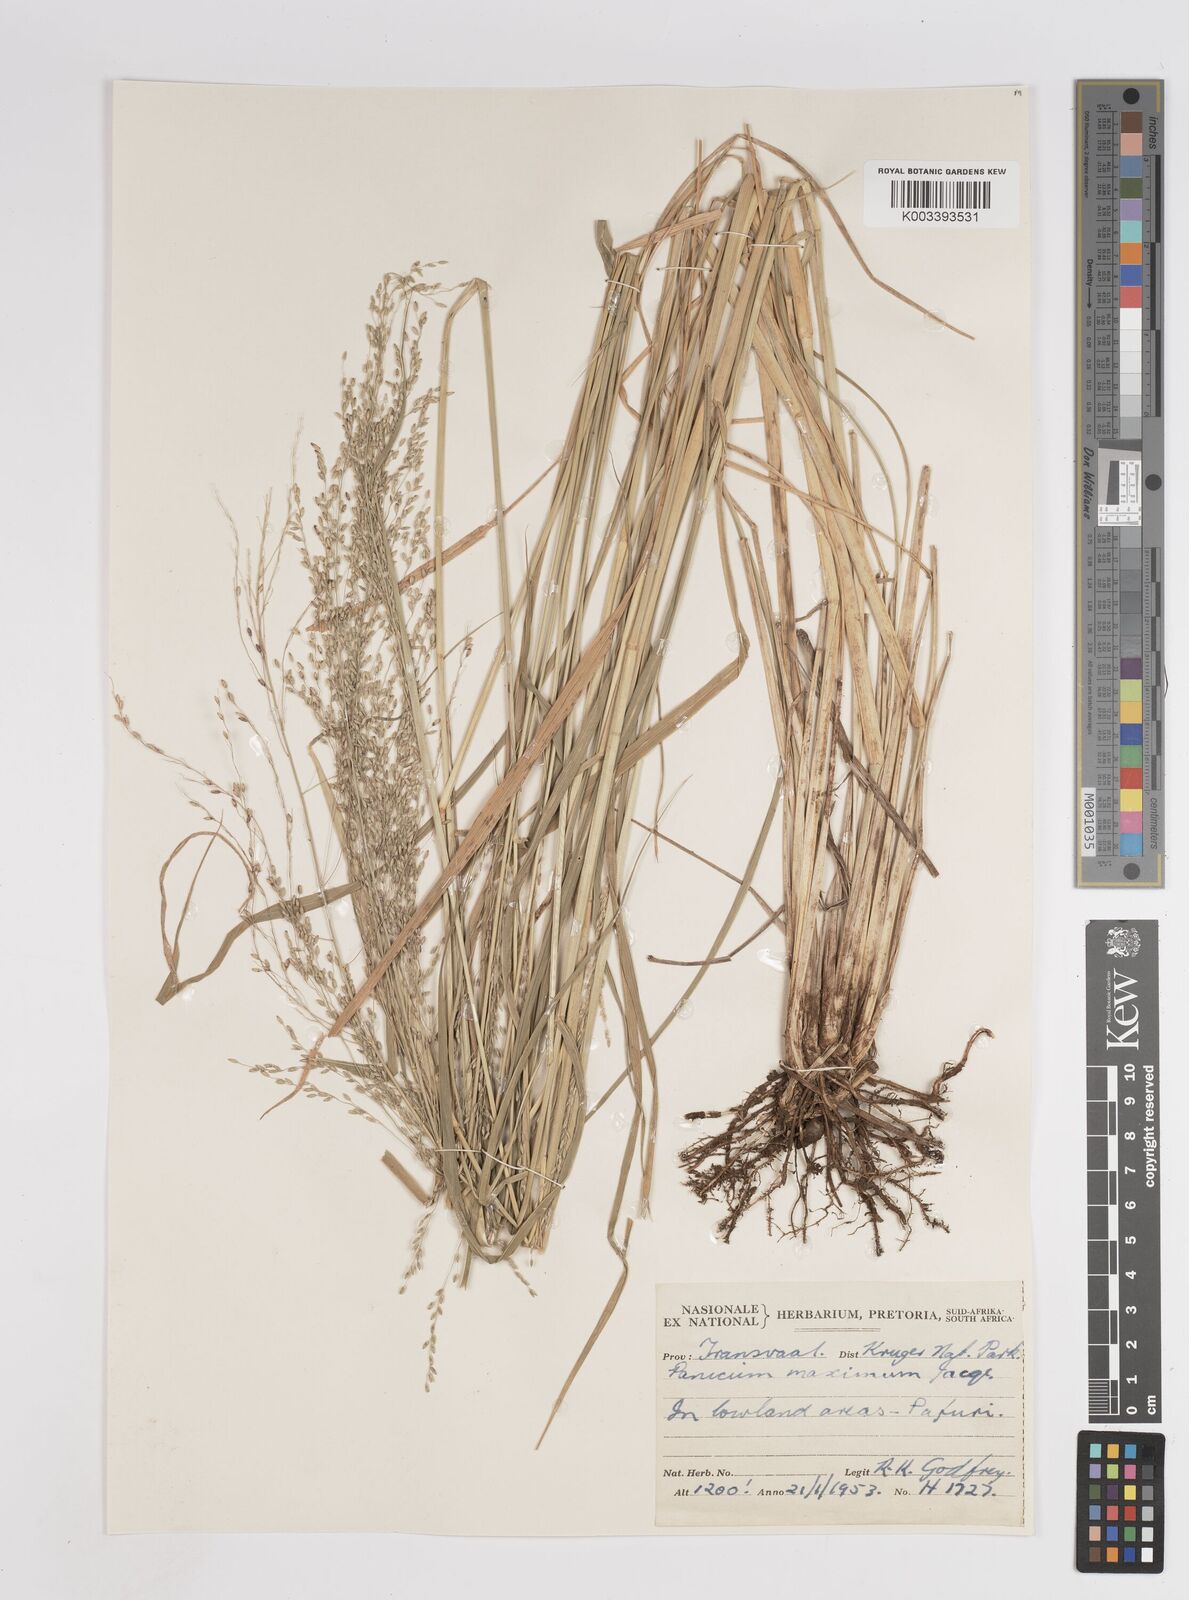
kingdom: Plantae
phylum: Tracheophyta
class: Liliopsida
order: Poales
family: Poaceae
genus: Megathyrsus
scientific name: Megathyrsus maximus
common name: Guineagrass
